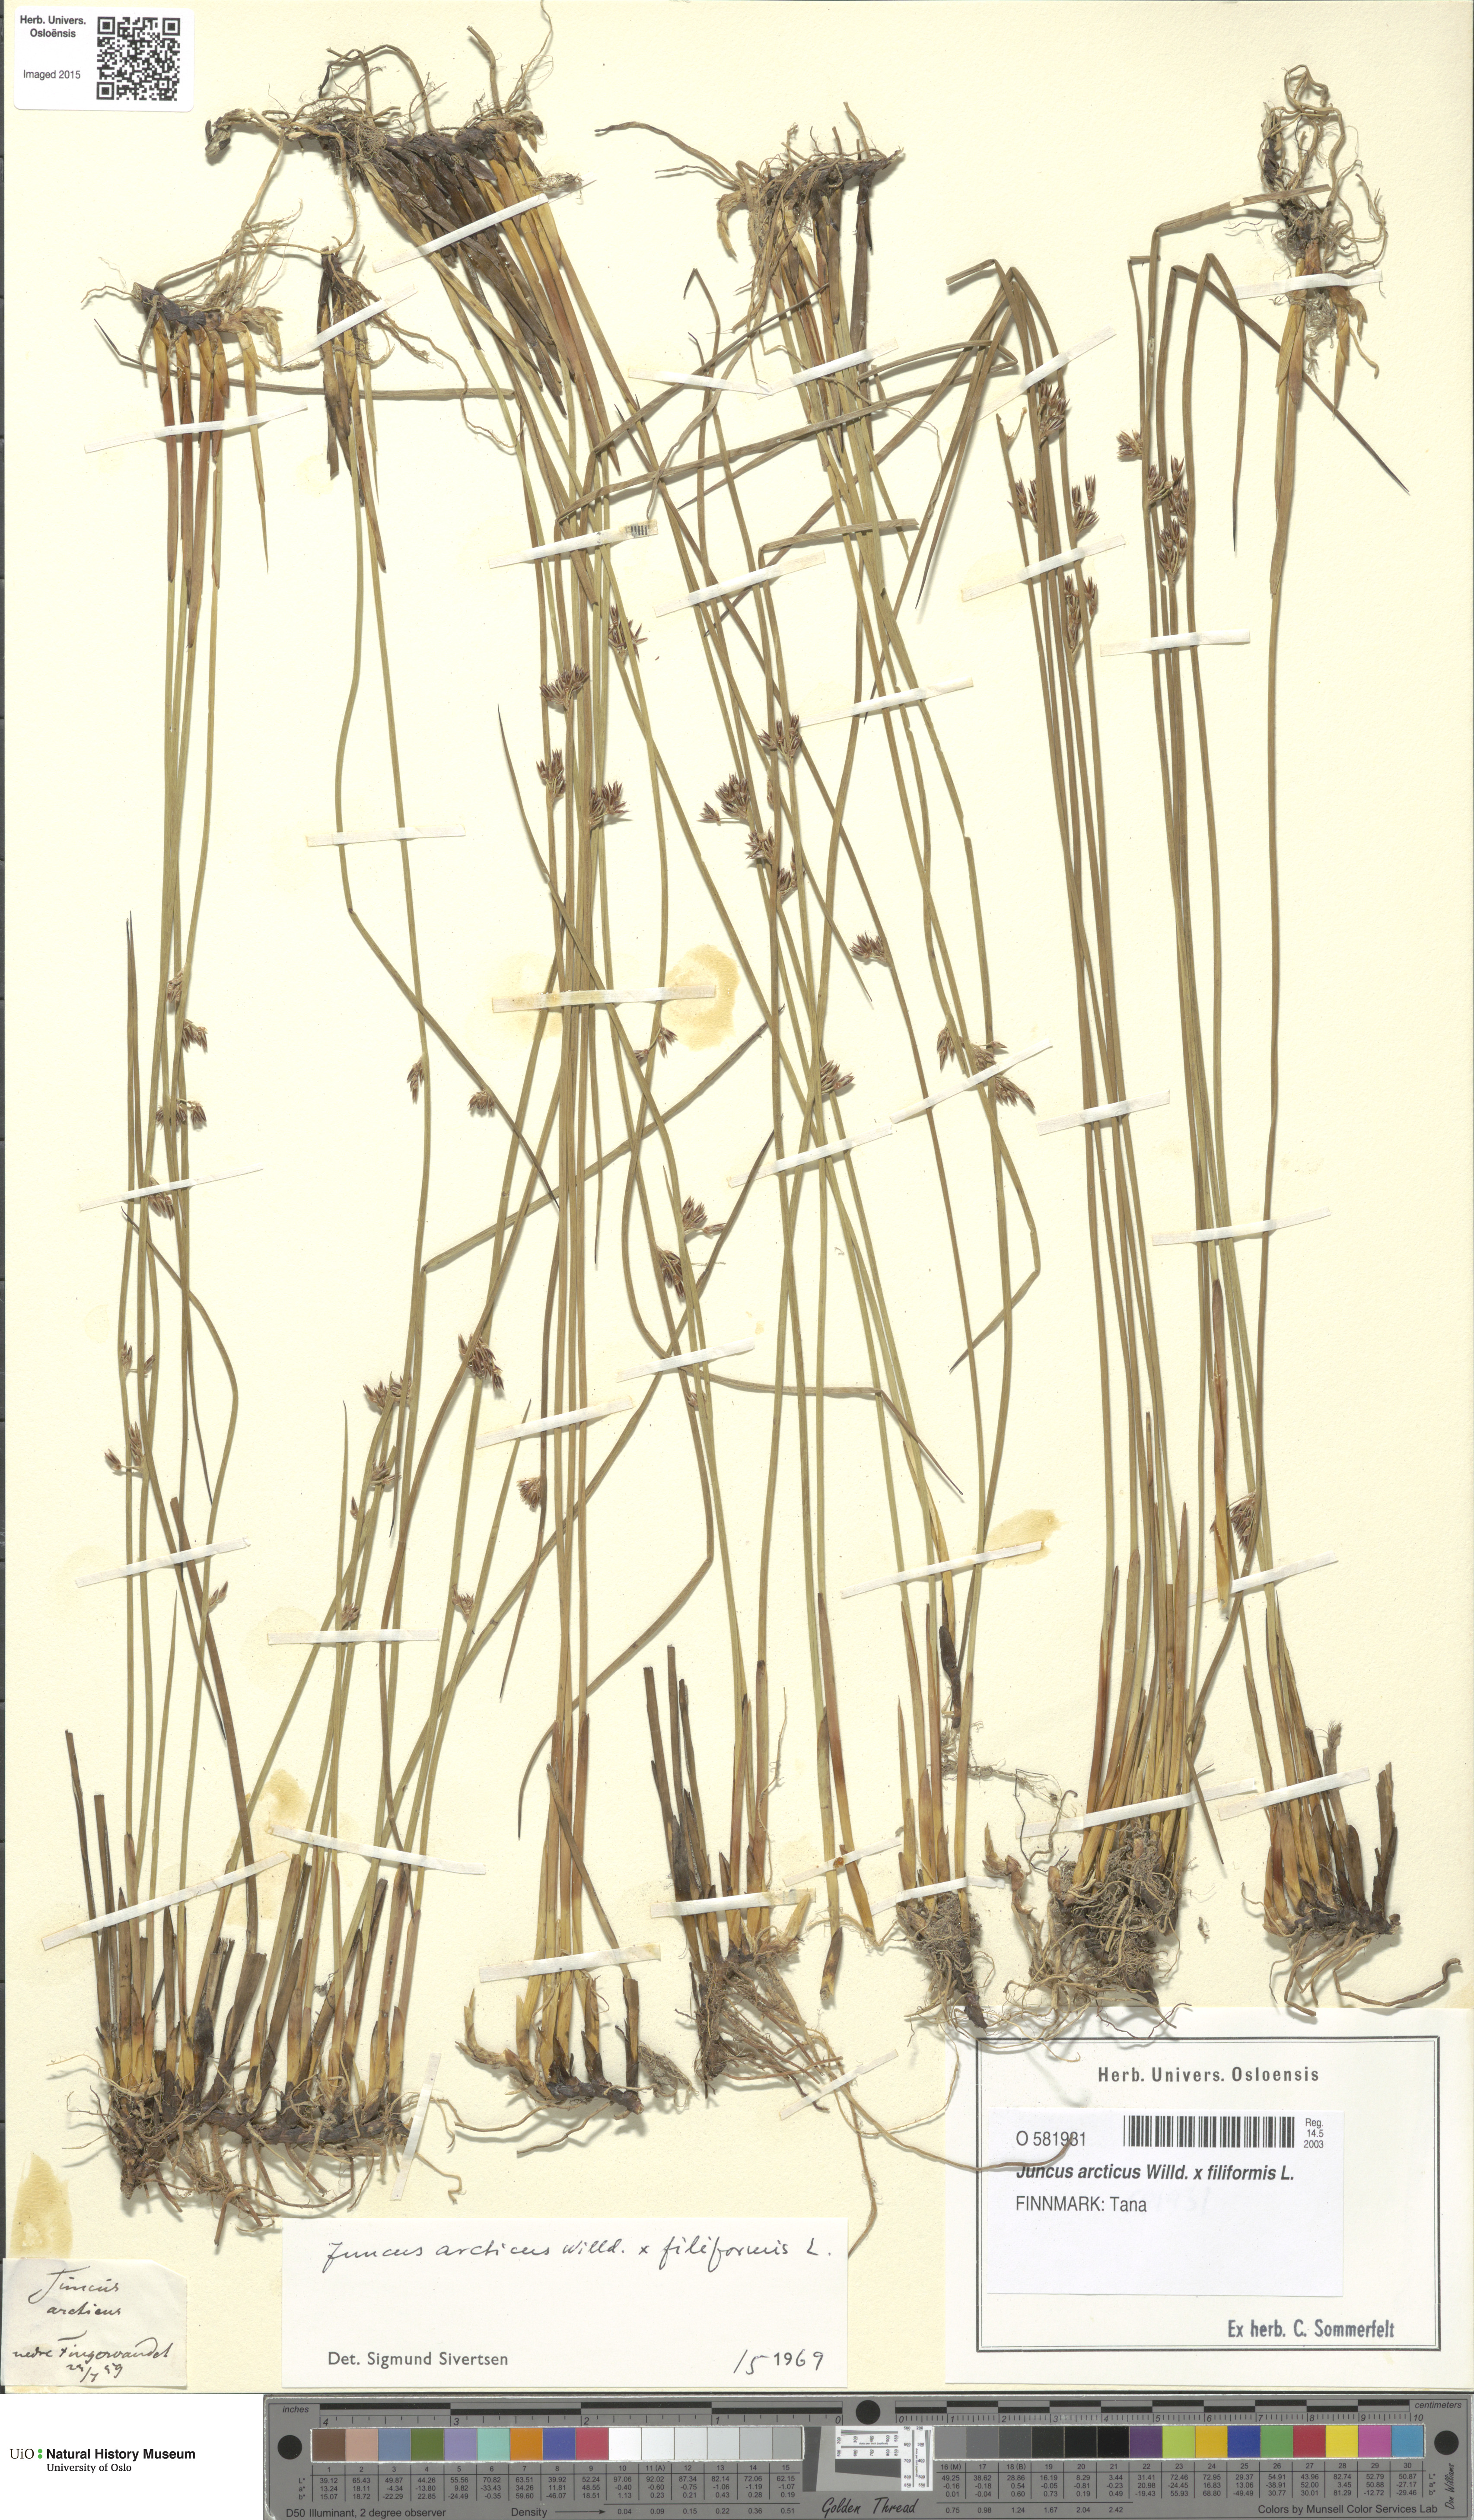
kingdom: Plantae
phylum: Tracheophyta
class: Liliopsida
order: Poales
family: Juncaceae
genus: Juncus
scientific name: Juncus
